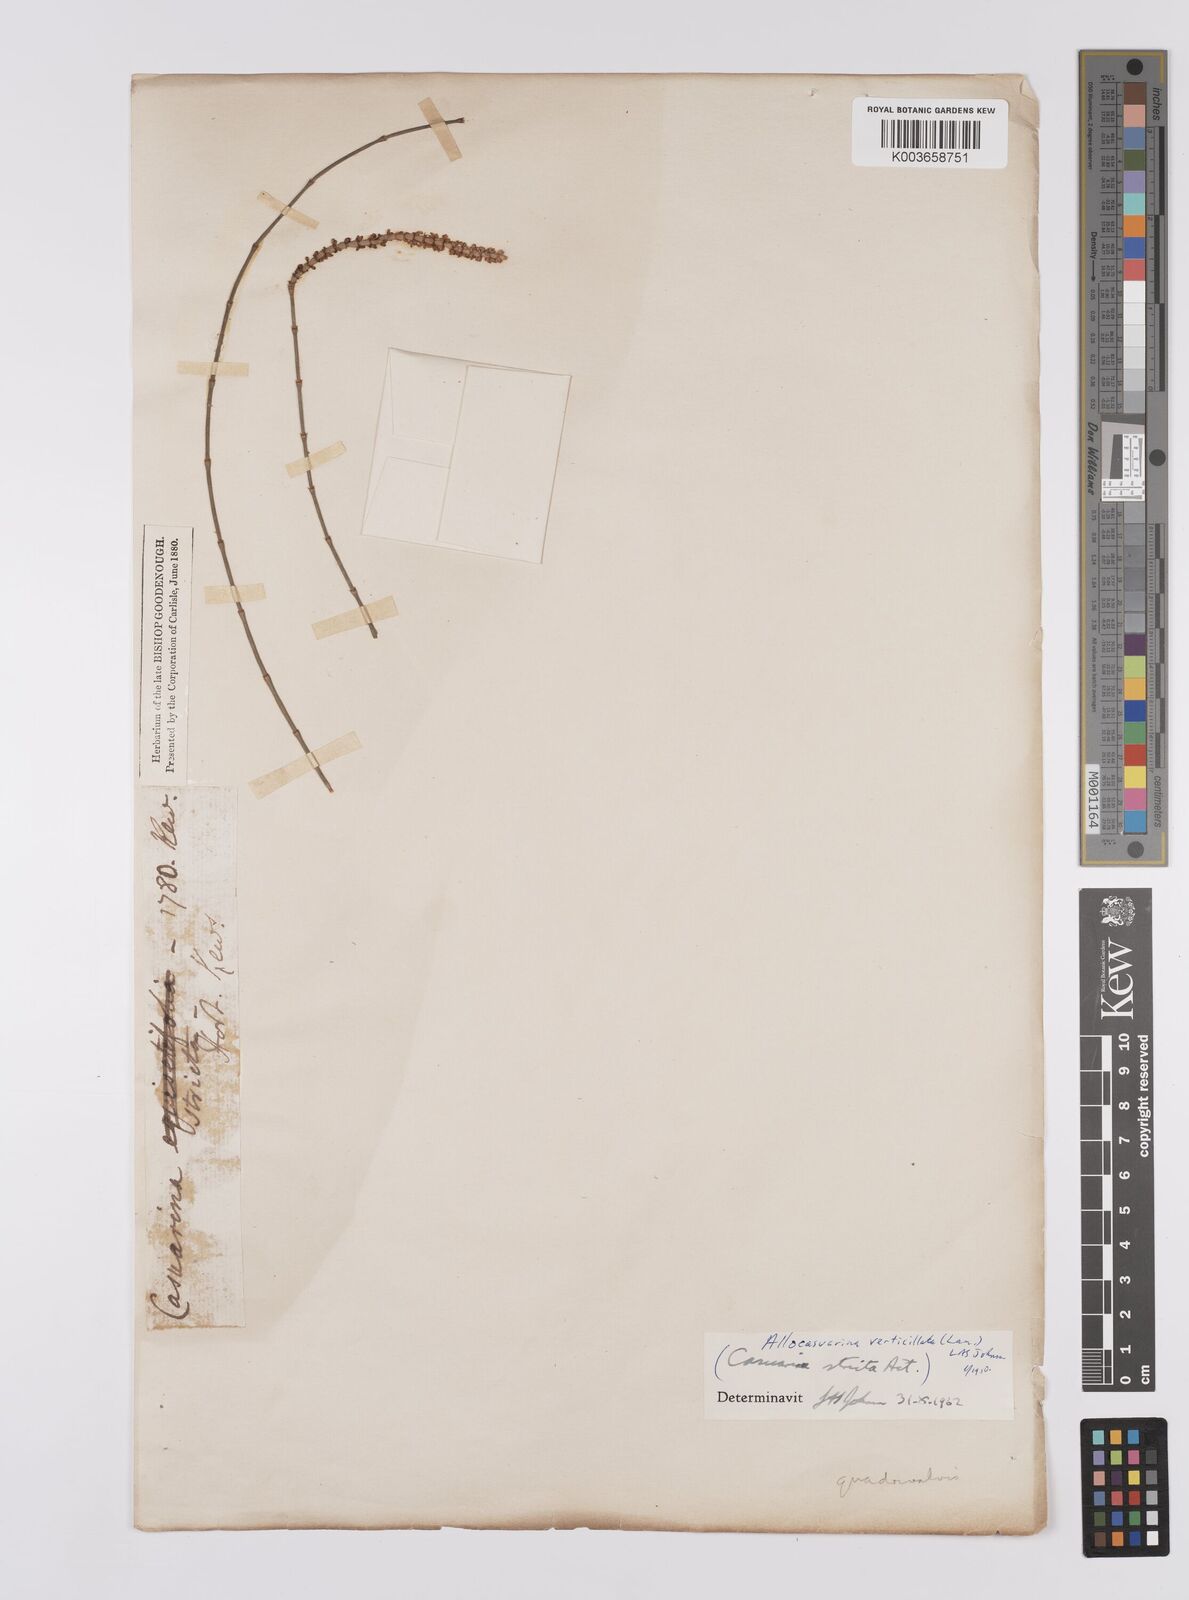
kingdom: Plantae
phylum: Tracheophyta
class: Magnoliopsida
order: Fagales
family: Casuarinaceae
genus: Allocasuarina
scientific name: Allocasuarina verticillata
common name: Drooping she-oak
